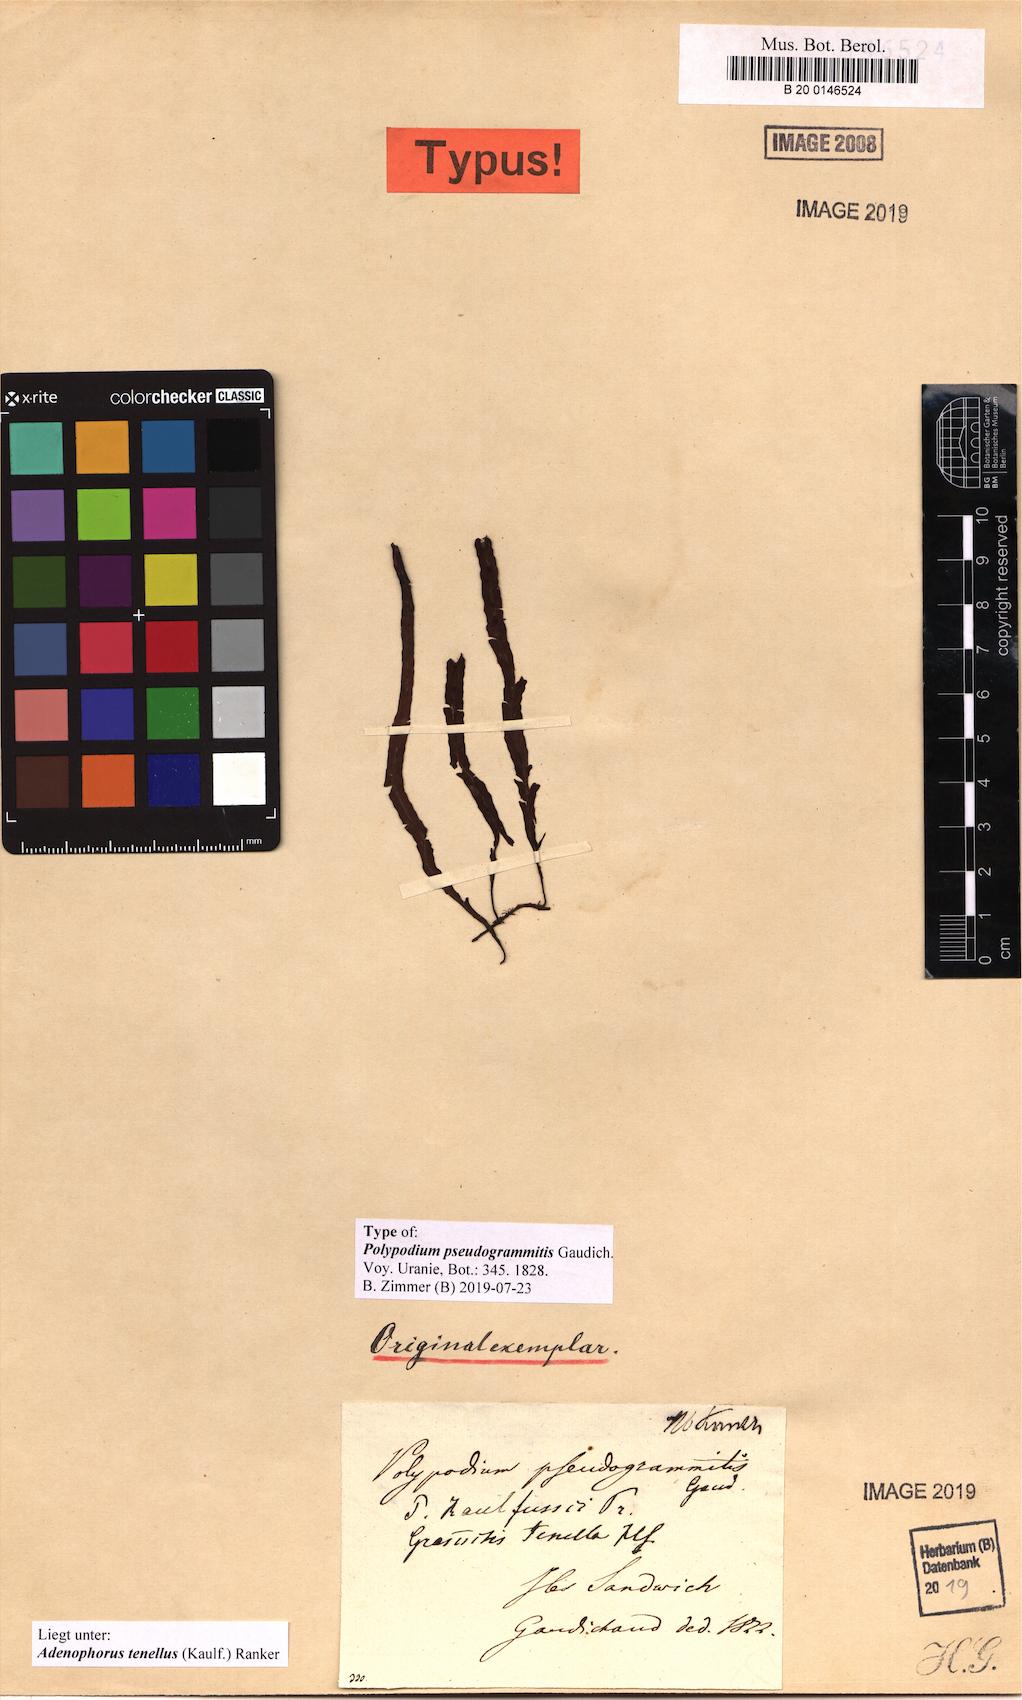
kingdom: Plantae
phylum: Tracheophyta
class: Polypodiopsida
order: Polypodiales
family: Polypodiaceae
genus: Adenophorus
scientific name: Adenophorus tenellus
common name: Kolokolo
